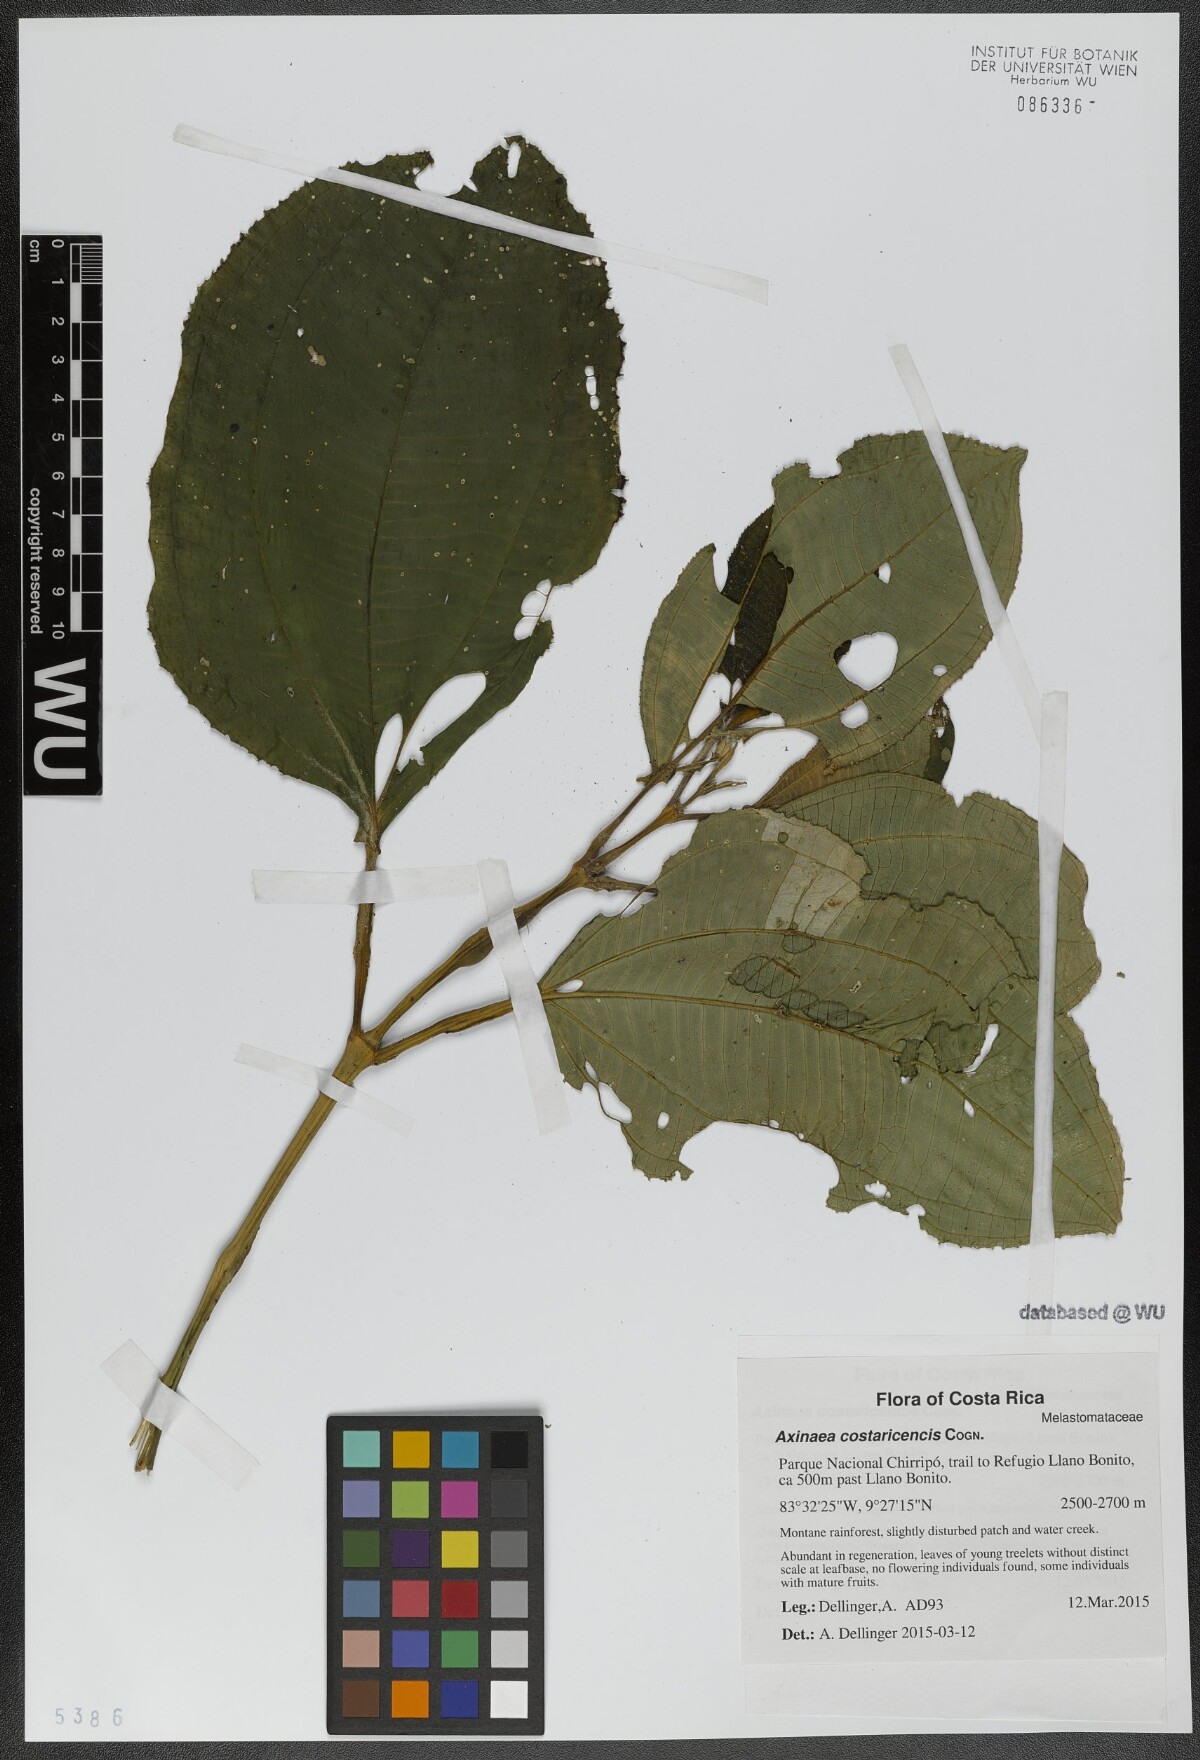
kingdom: Plantae
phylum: Tracheophyta
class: Magnoliopsida
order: Myrtales
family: Melastomataceae
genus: Axinaea
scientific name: Axinaea costaricencis
